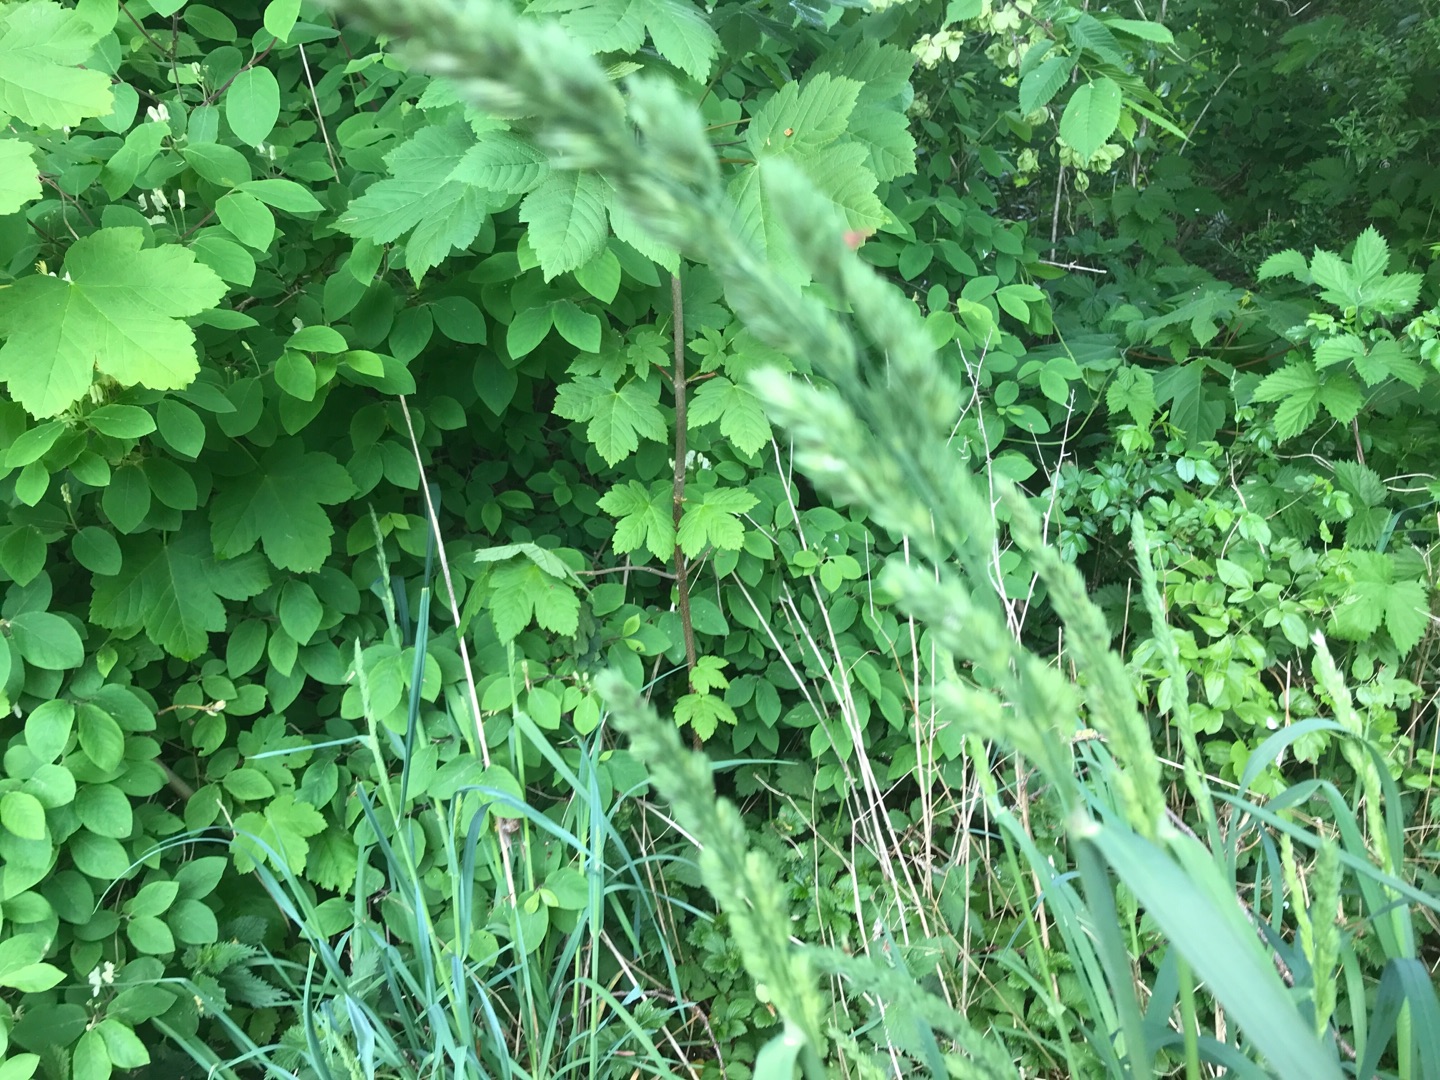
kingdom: Plantae
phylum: Tracheophyta
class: Liliopsida
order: Poales
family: Poaceae
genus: Dactylis
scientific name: Dactylis glomerata
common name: Almindelig hundegræs
